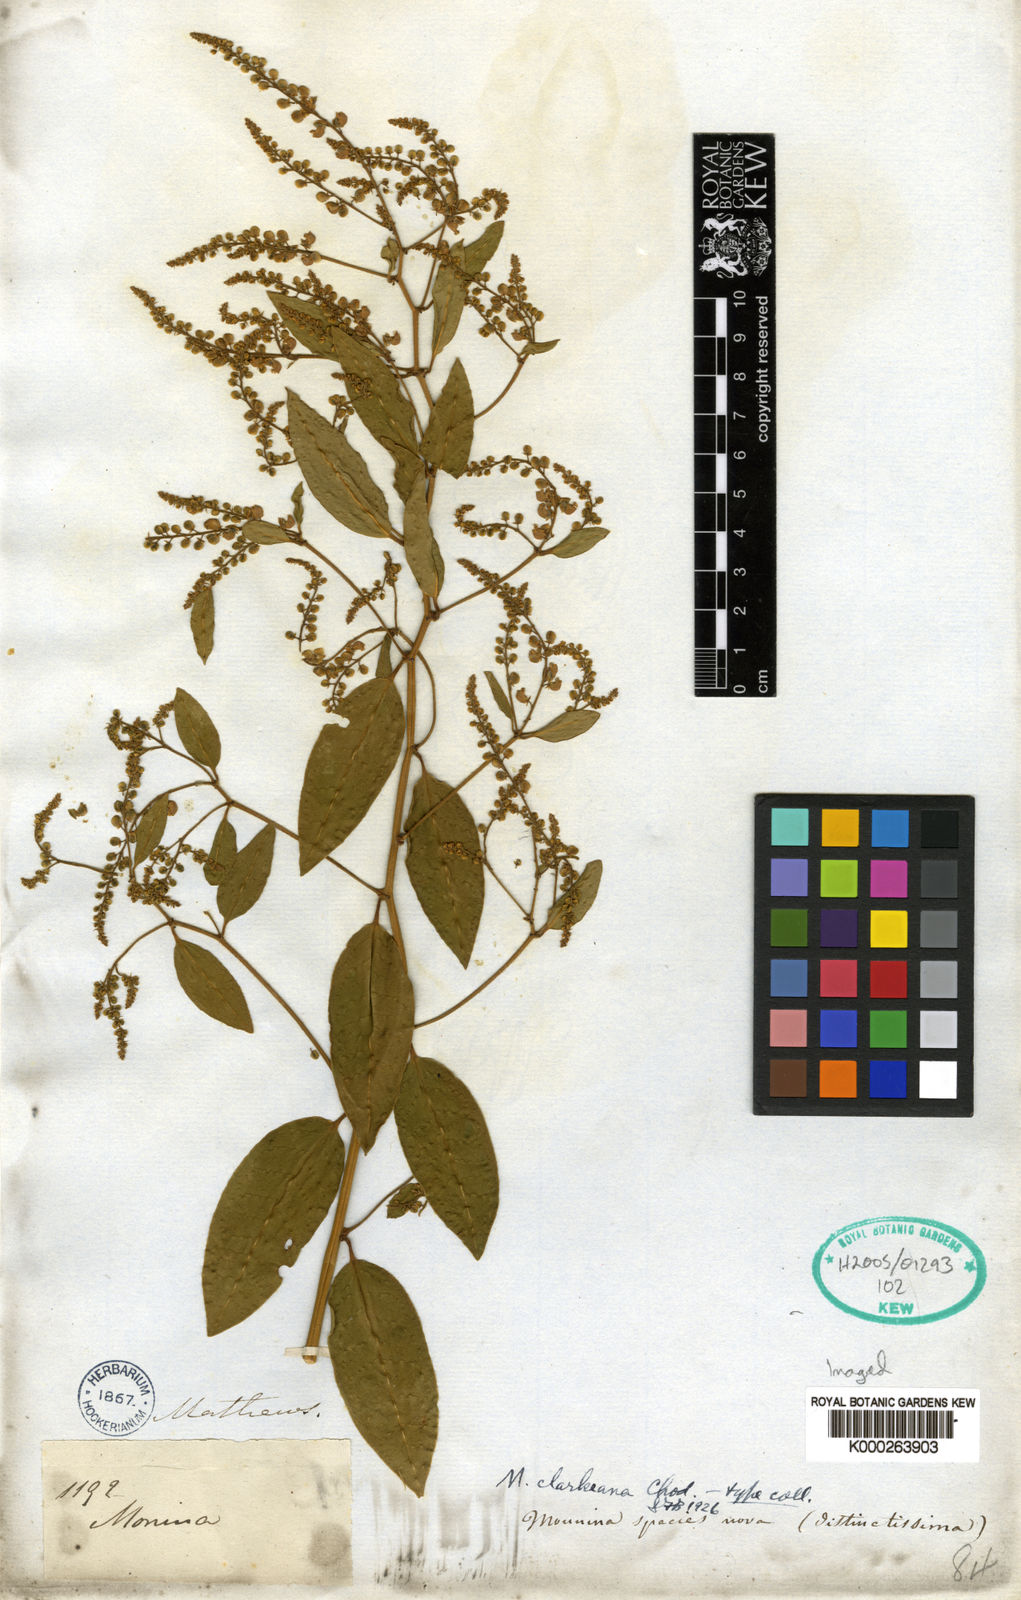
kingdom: Plantae
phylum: Tracheophyta
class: Magnoliopsida
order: Fabales
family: Polygalaceae
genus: Monnina
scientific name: Monnina clarkeana
